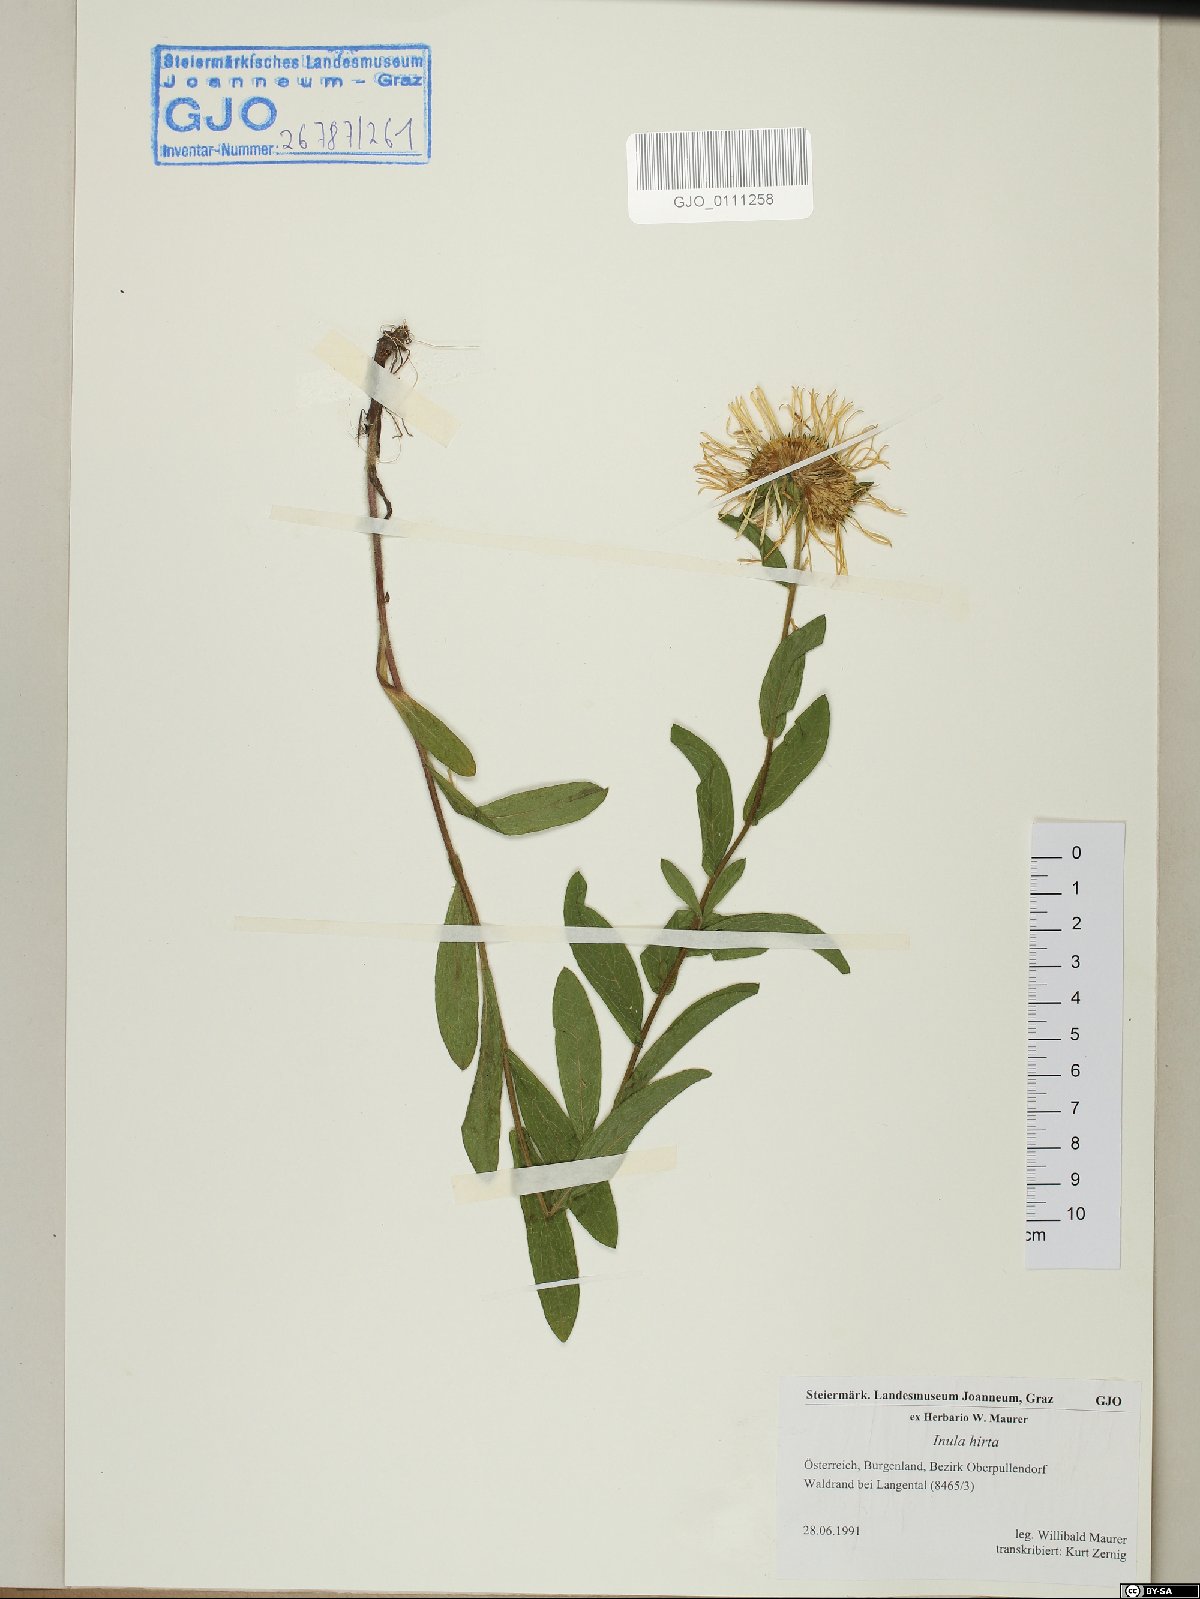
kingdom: Plantae
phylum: Tracheophyta
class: Magnoliopsida
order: Asterales
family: Asteraceae
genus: Pentanema
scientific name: Pentanema hirtum
